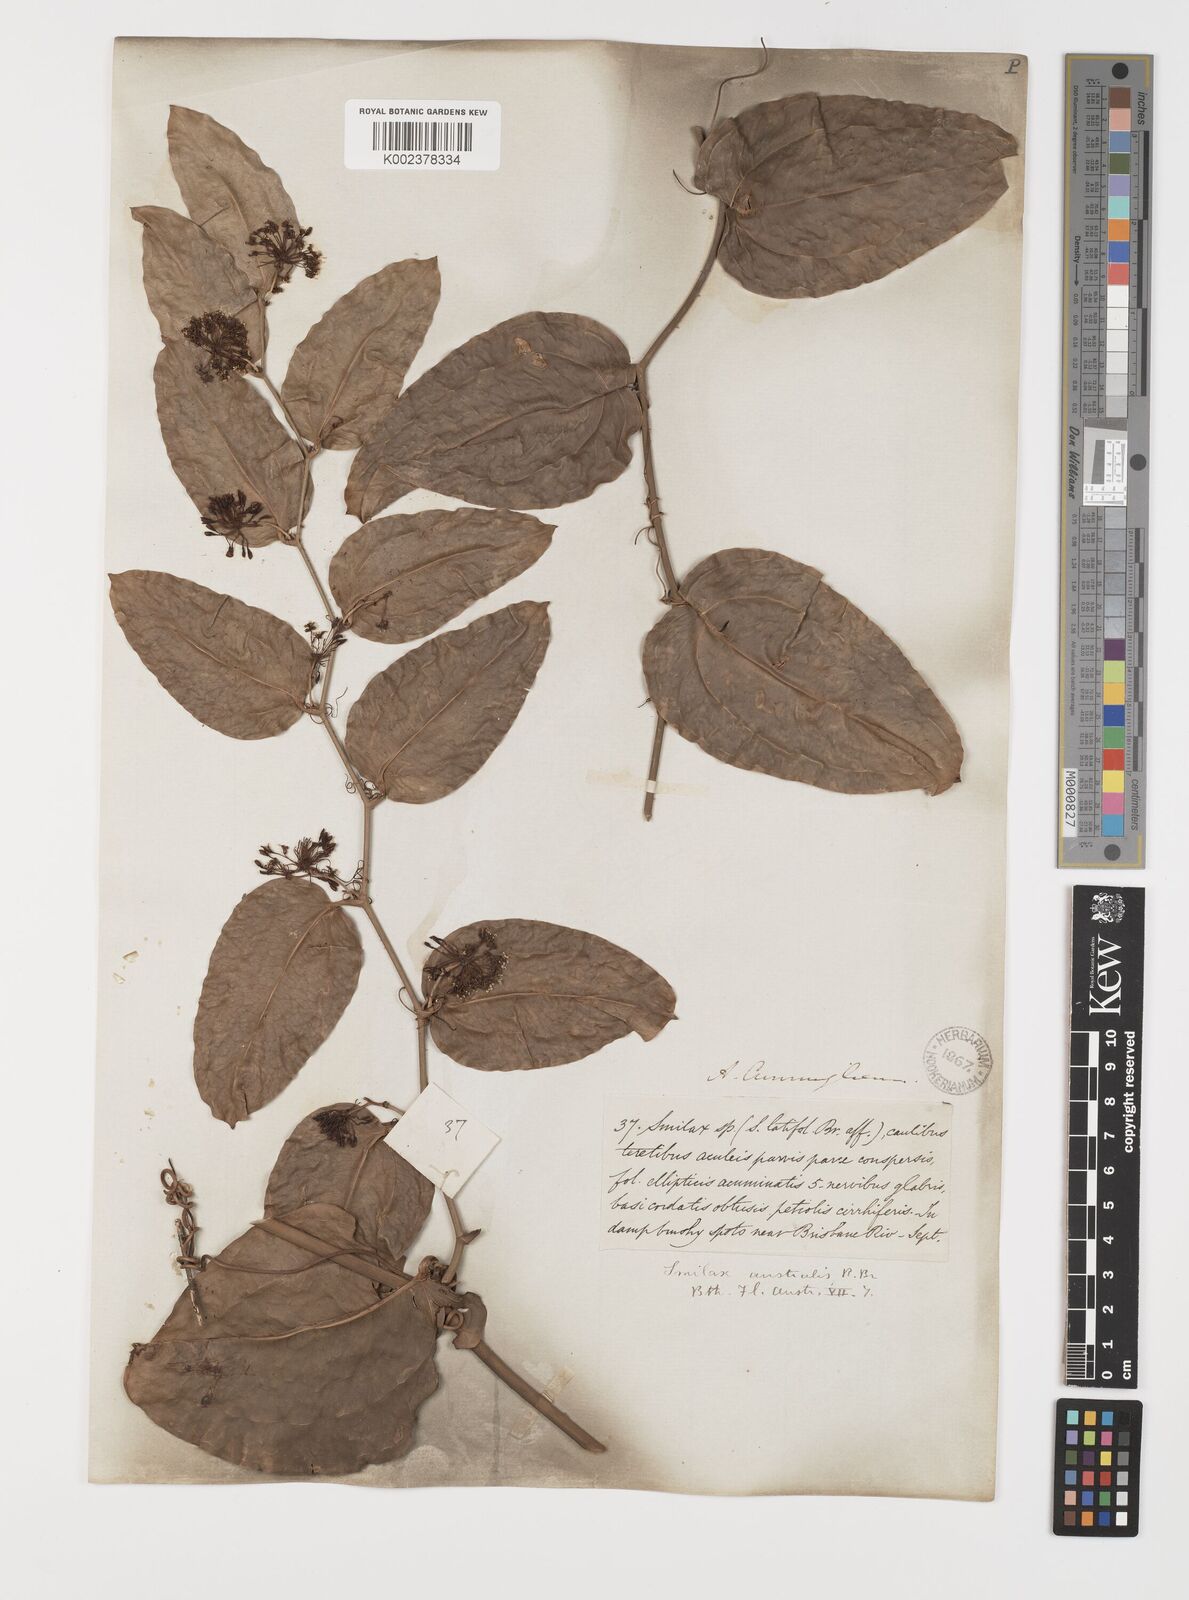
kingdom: Plantae
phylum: Tracheophyta
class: Liliopsida
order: Liliales
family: Smilacaceae
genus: Smilax
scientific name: Smilax australis
